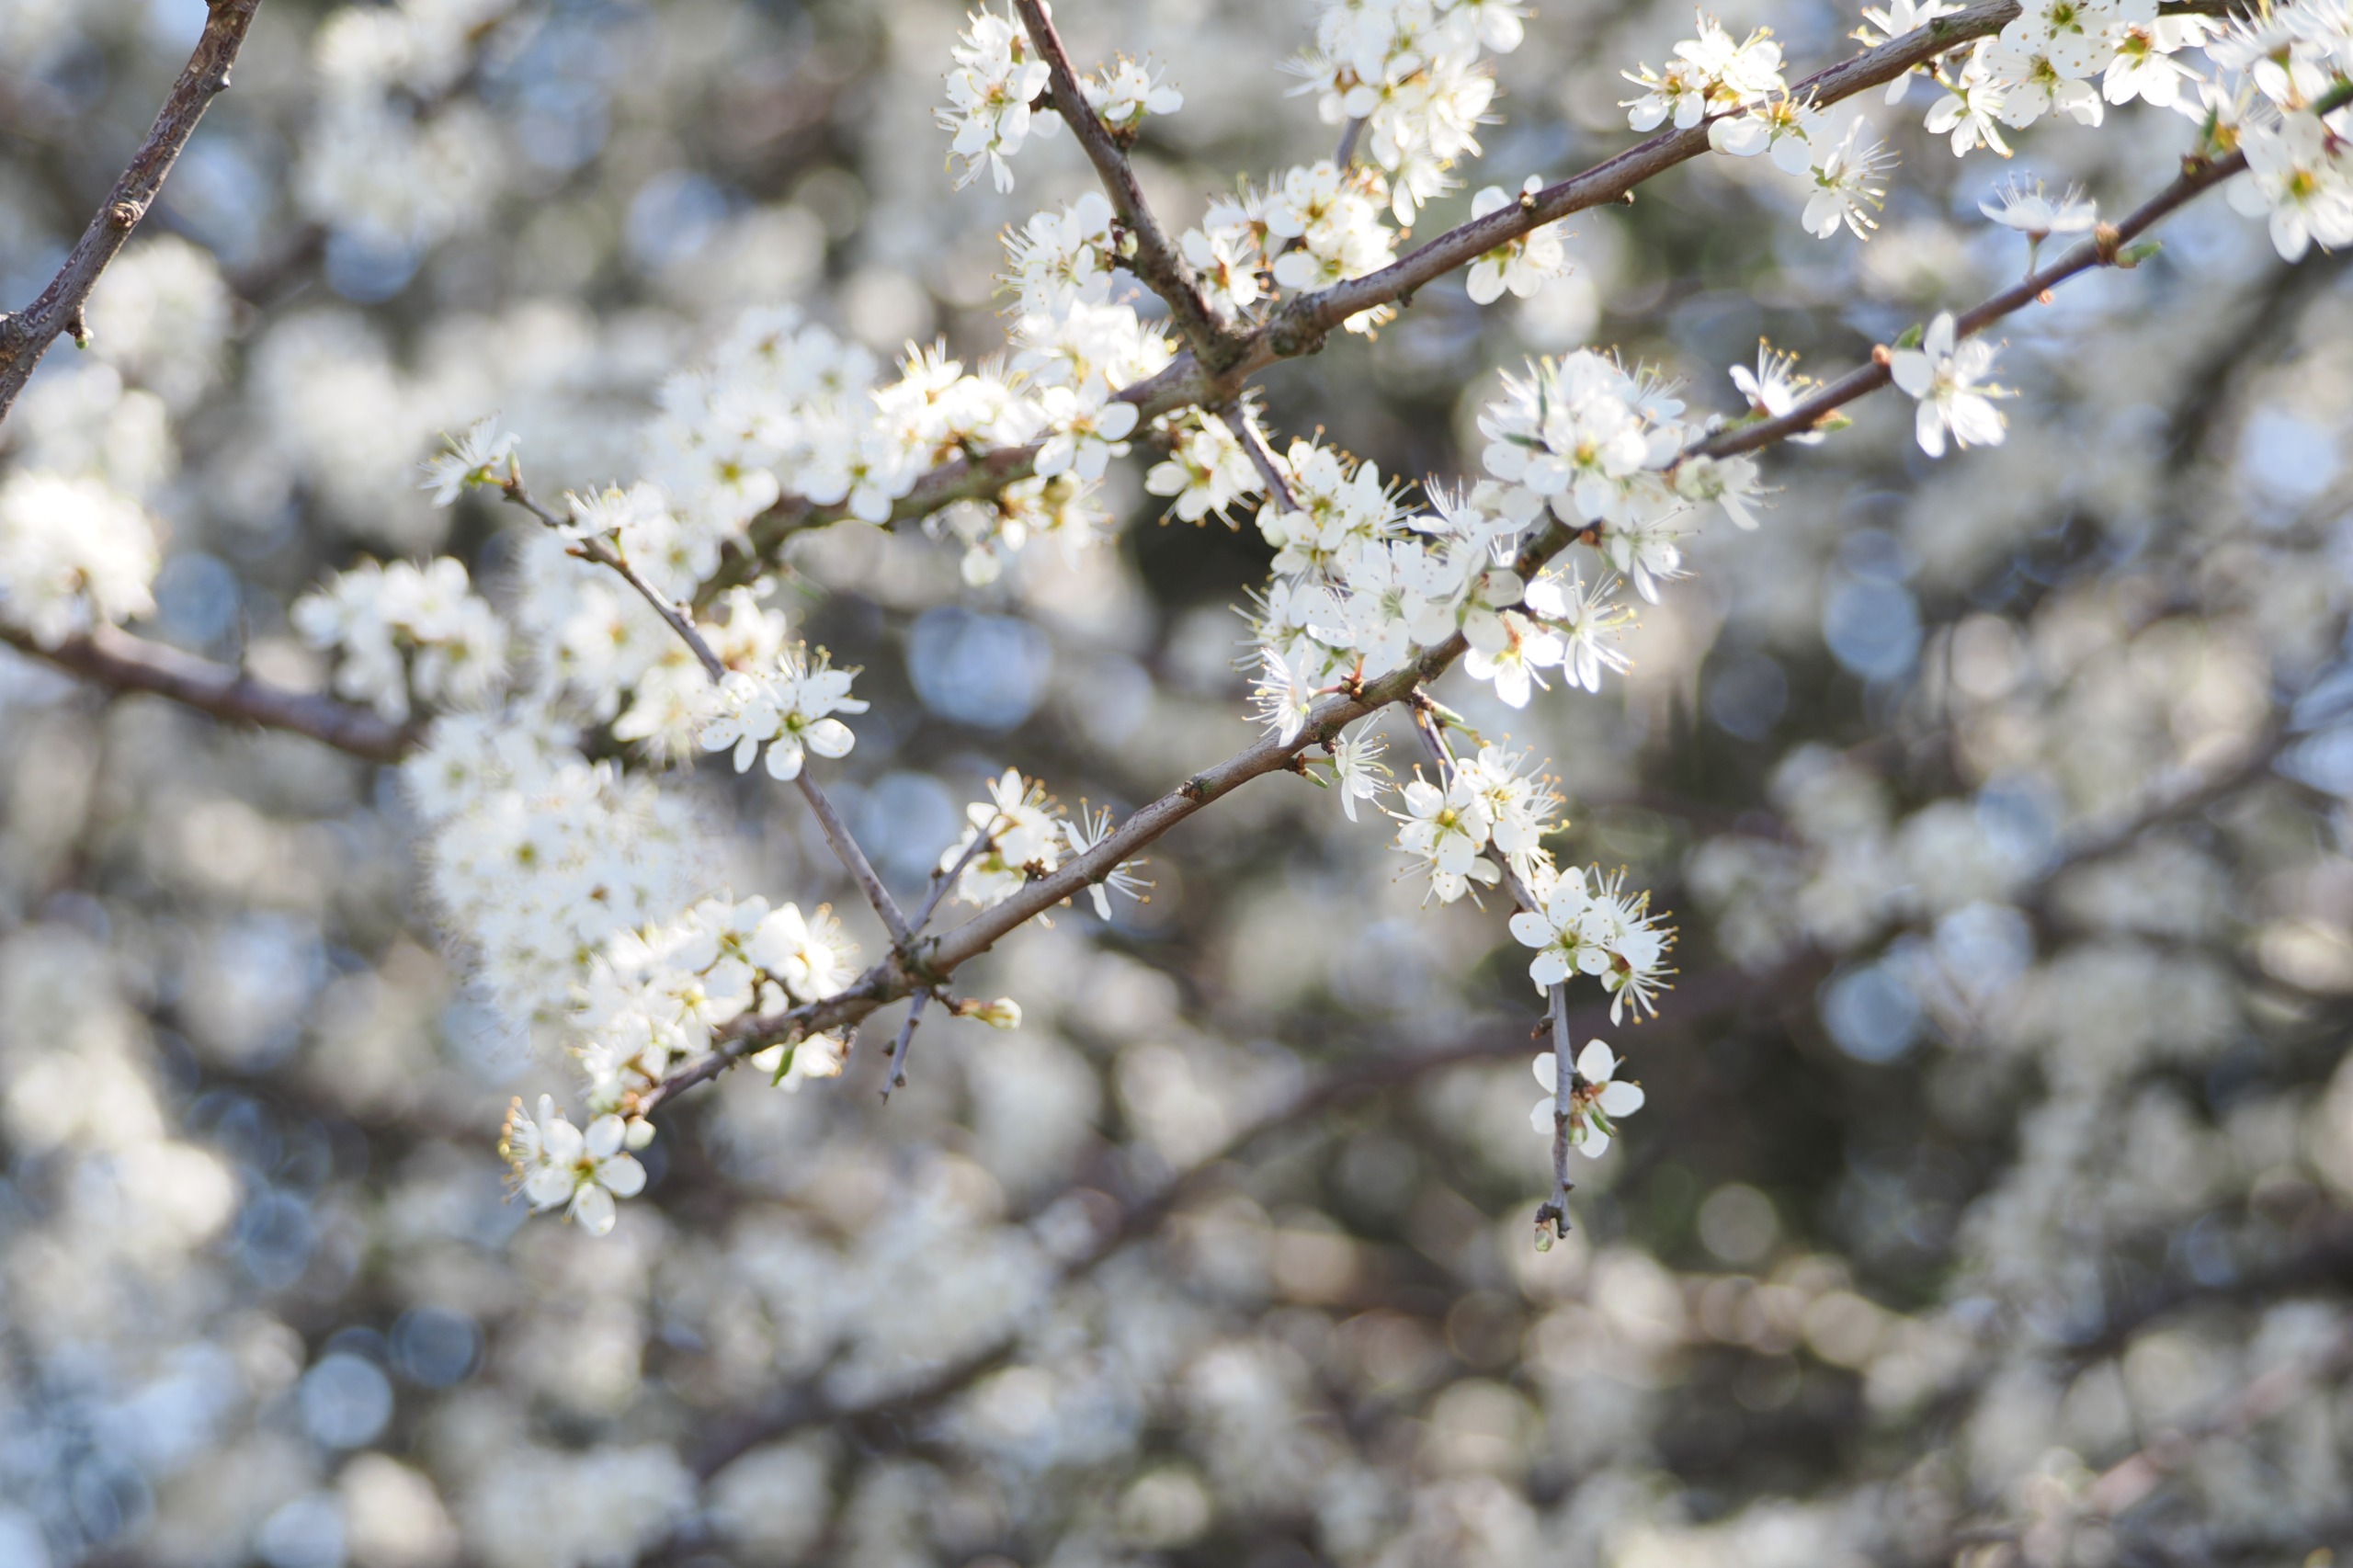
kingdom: Plantae
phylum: Tracheophyta
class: Magnoliopsida
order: Rosales
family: Rosaceae
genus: Prunus
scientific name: Prunus spinosa
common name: Slåen
